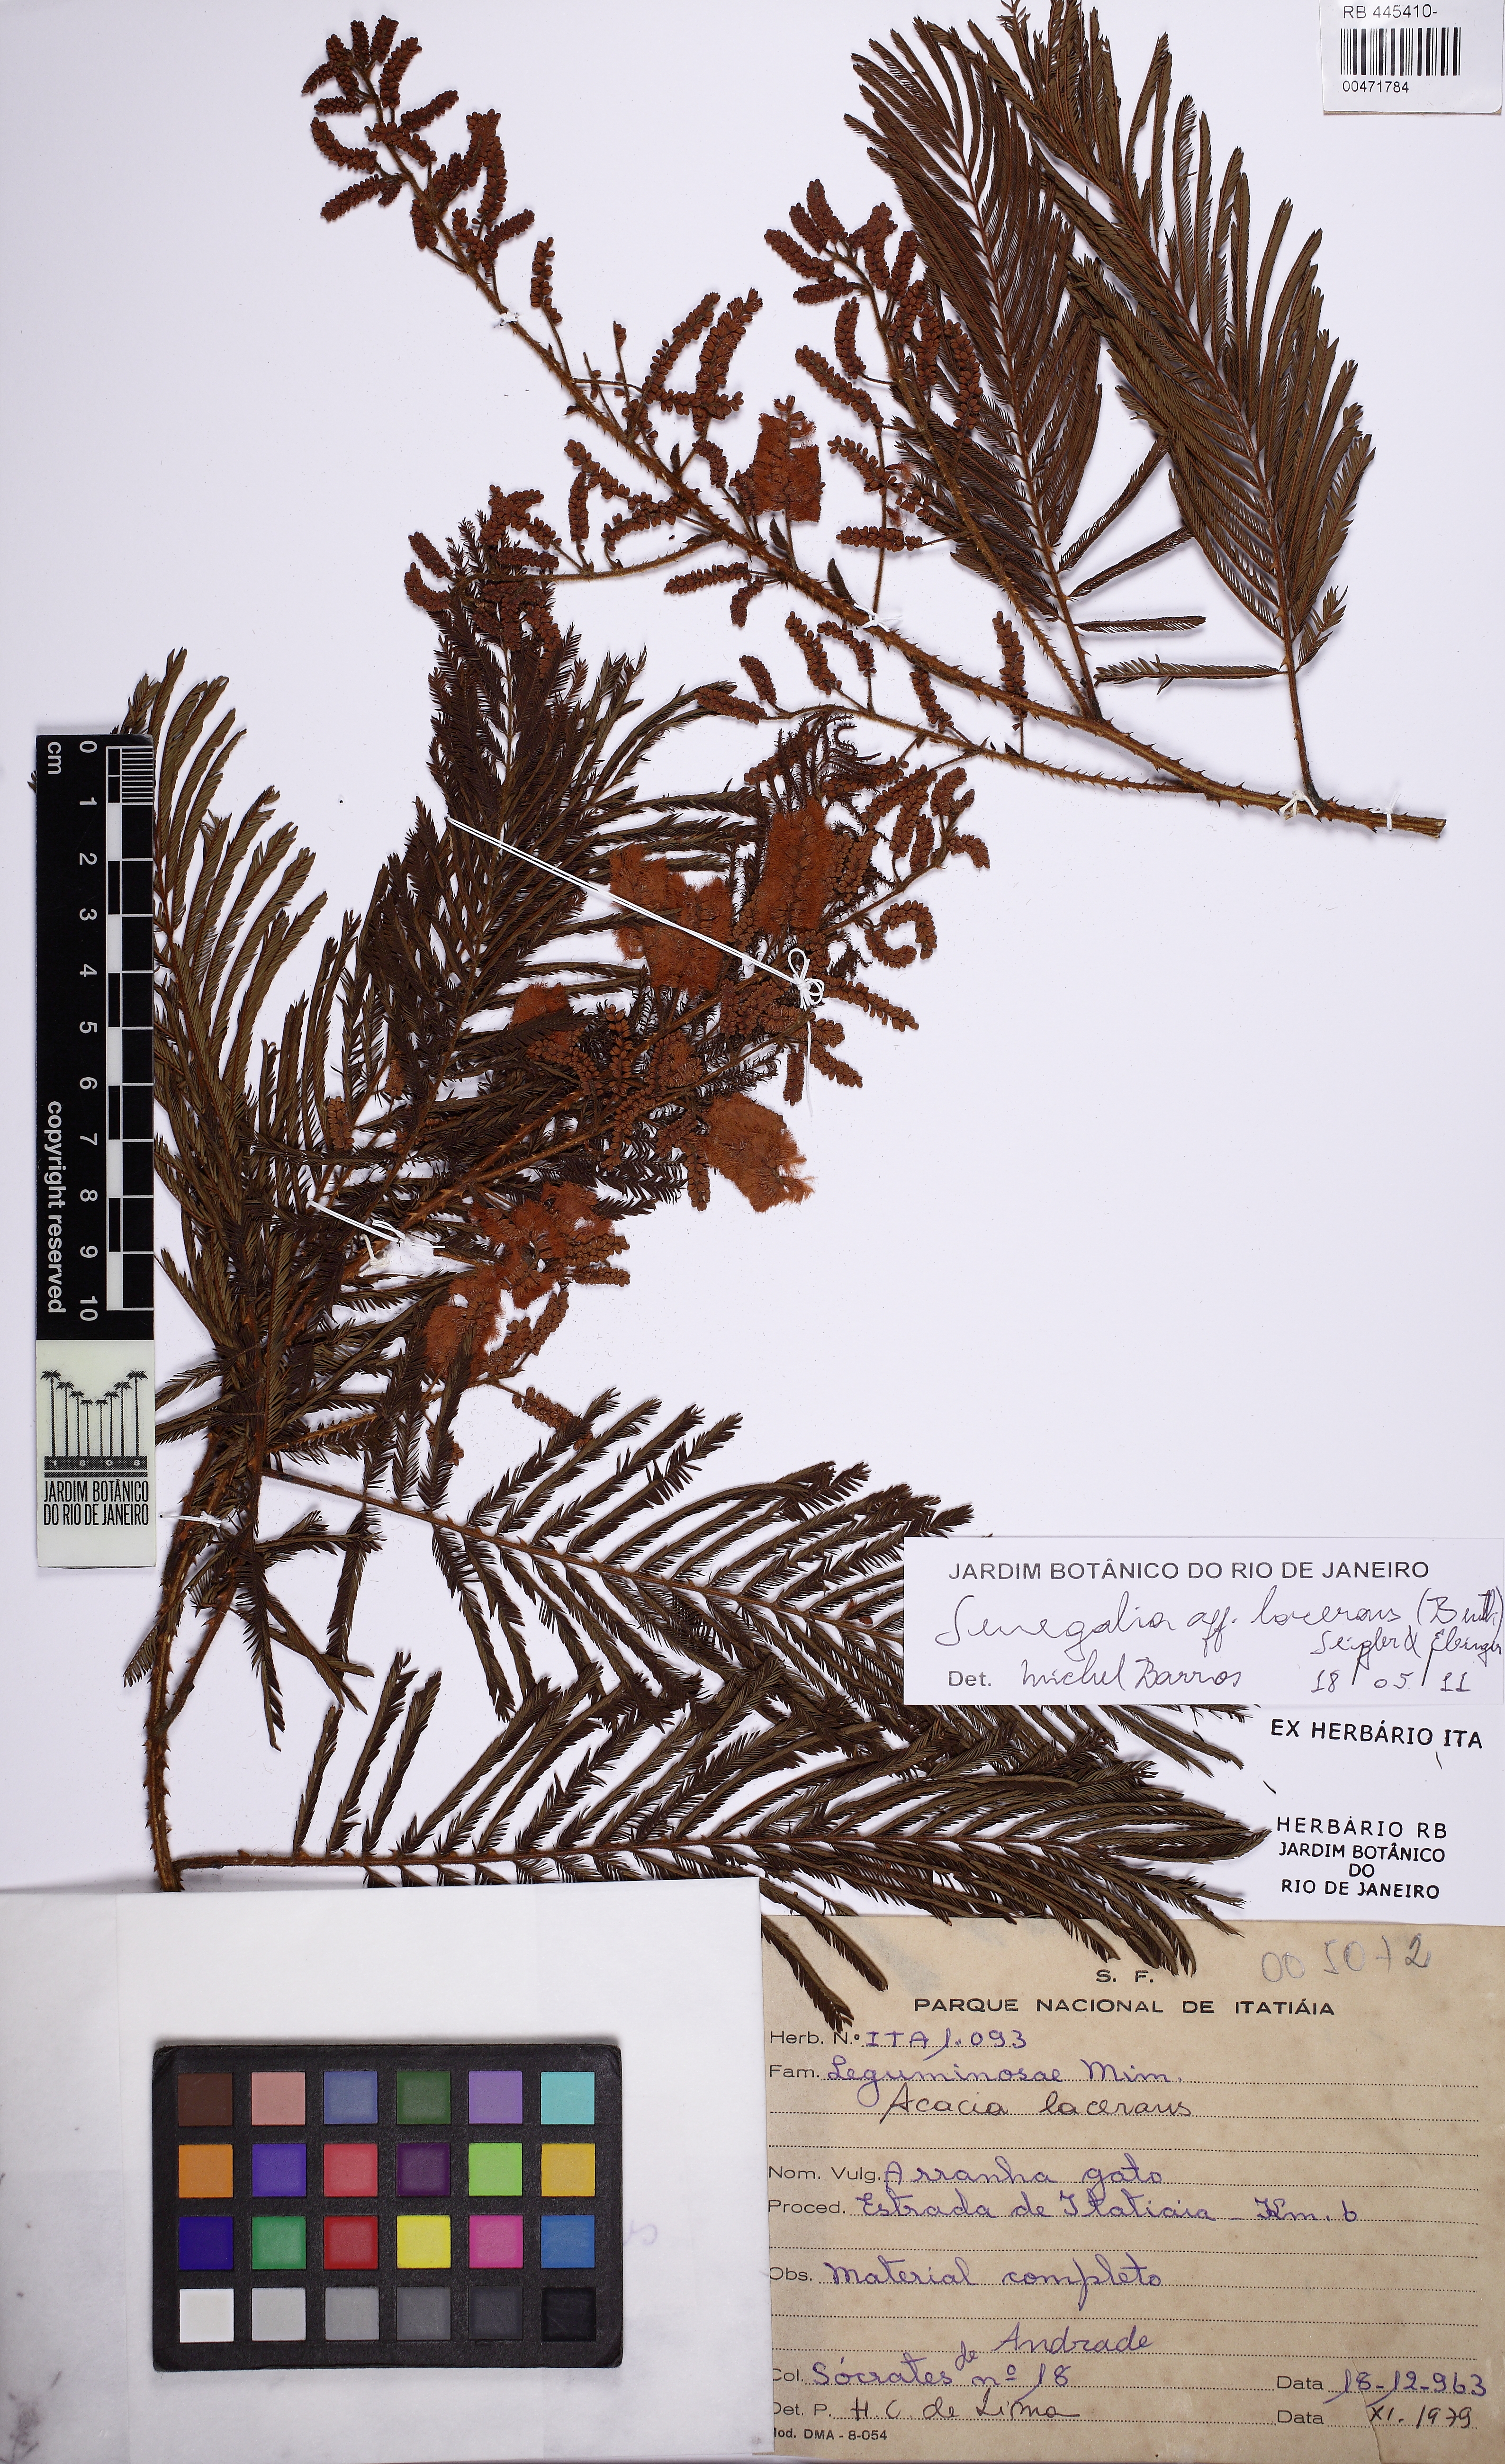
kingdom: Plantae
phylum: Tracheophyta
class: Magnoliopsida
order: Fabales
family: Fabaceae
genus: Senegalia
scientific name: Senegalia lacerans
